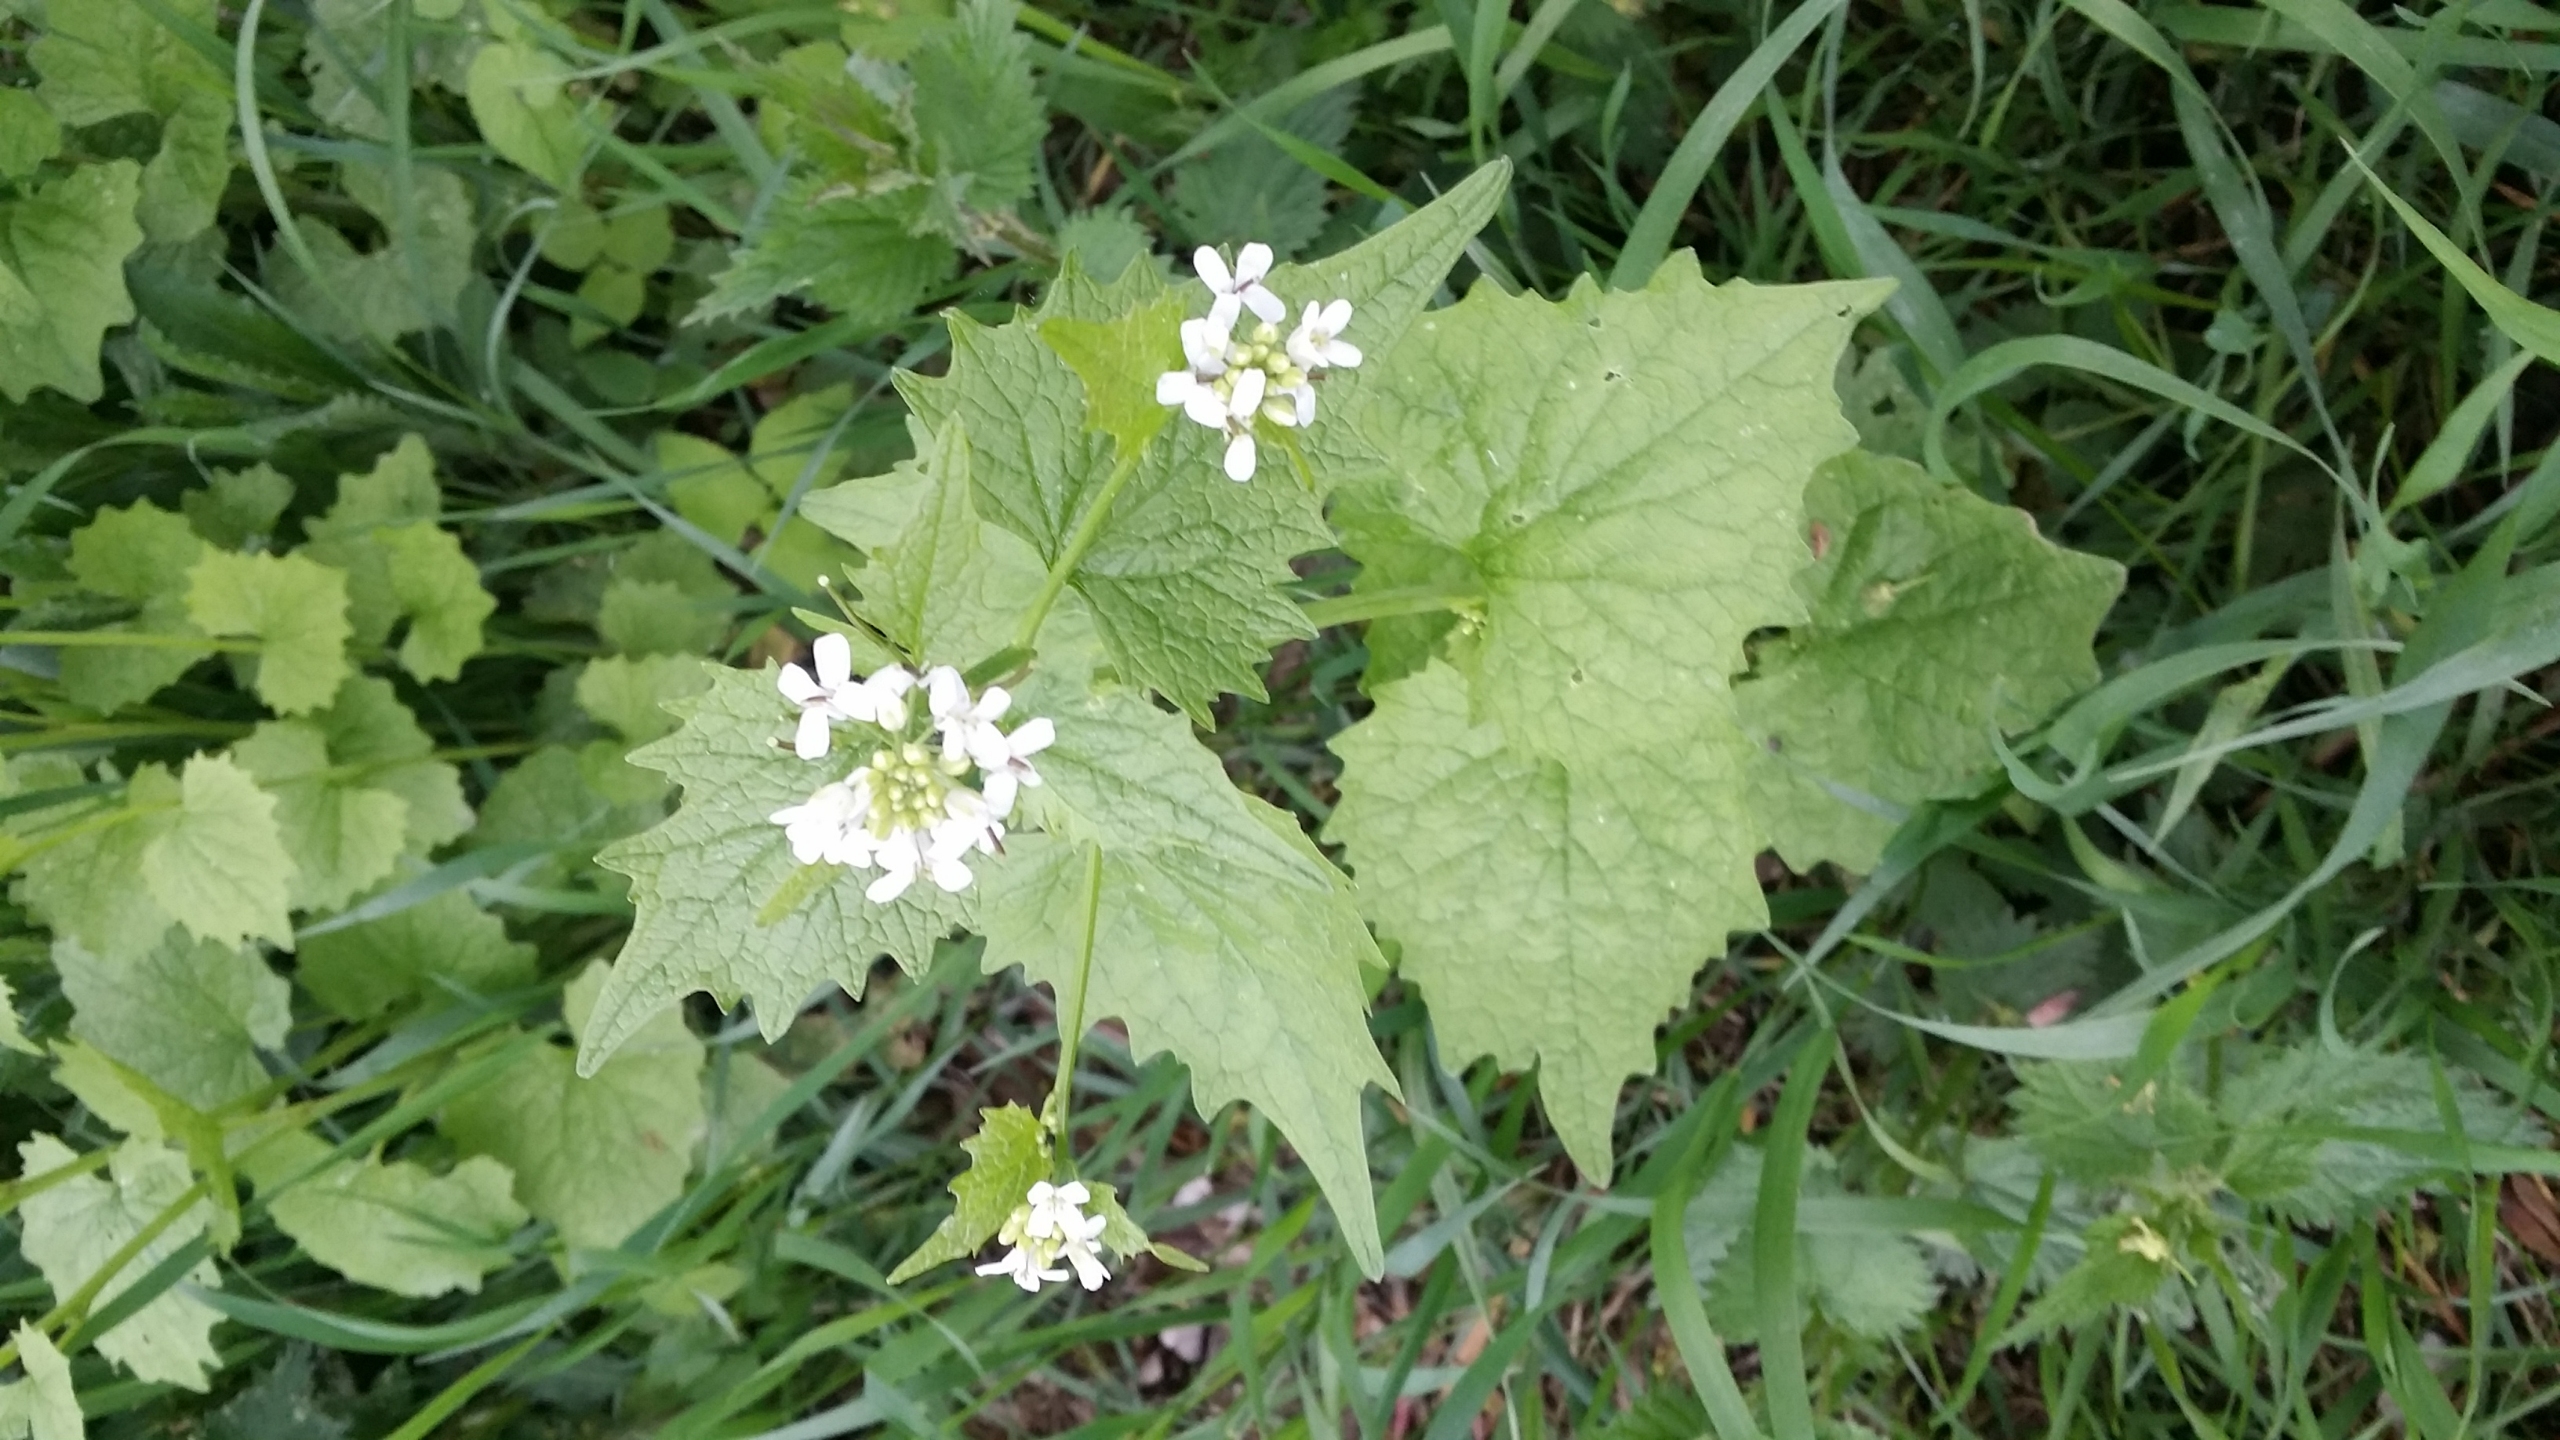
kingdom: Plantae
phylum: Tracheophyta
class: Magnoliopsida
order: Brassicales
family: Brassicaceae
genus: Alliaria
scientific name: Alliaria petiolata
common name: Løgkarse
